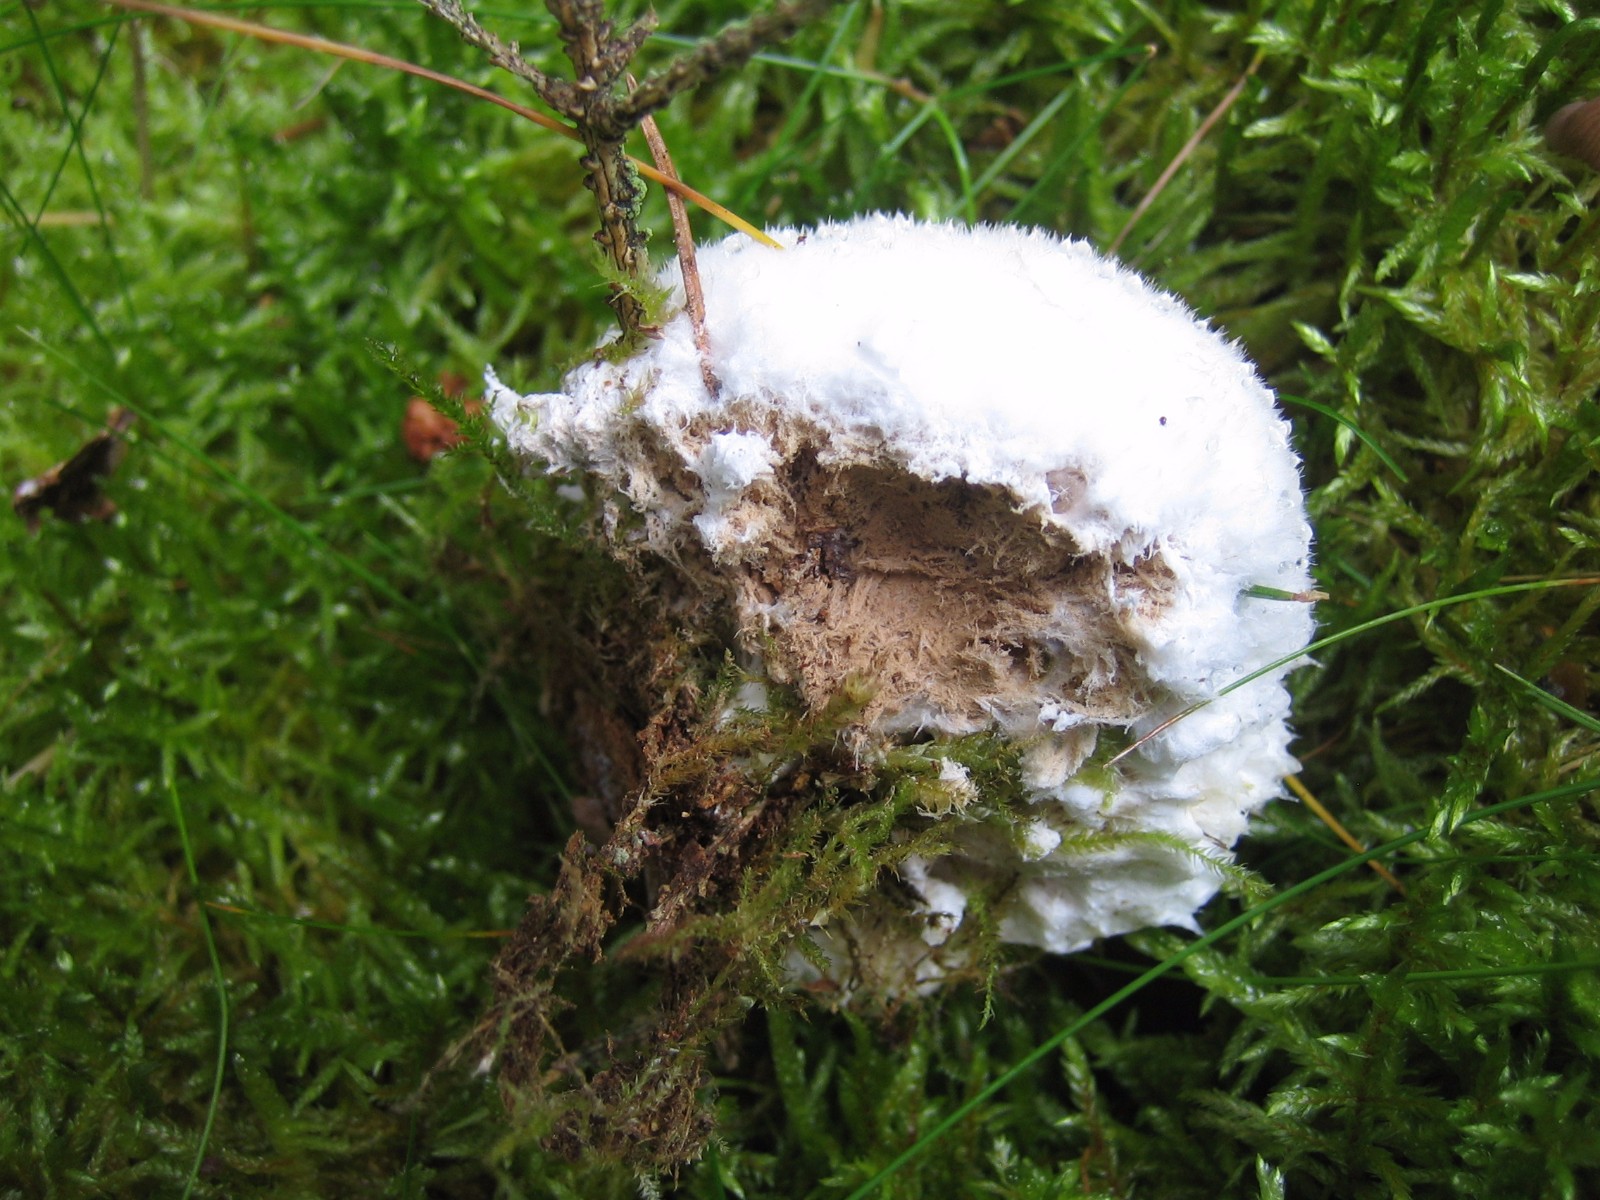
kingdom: Fungi
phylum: Basidiomycota
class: Agaricomycetes
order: Polyporales
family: Dacryobolaceae
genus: Postia
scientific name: Postia ptychogaster
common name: støvende kødporesvamp
